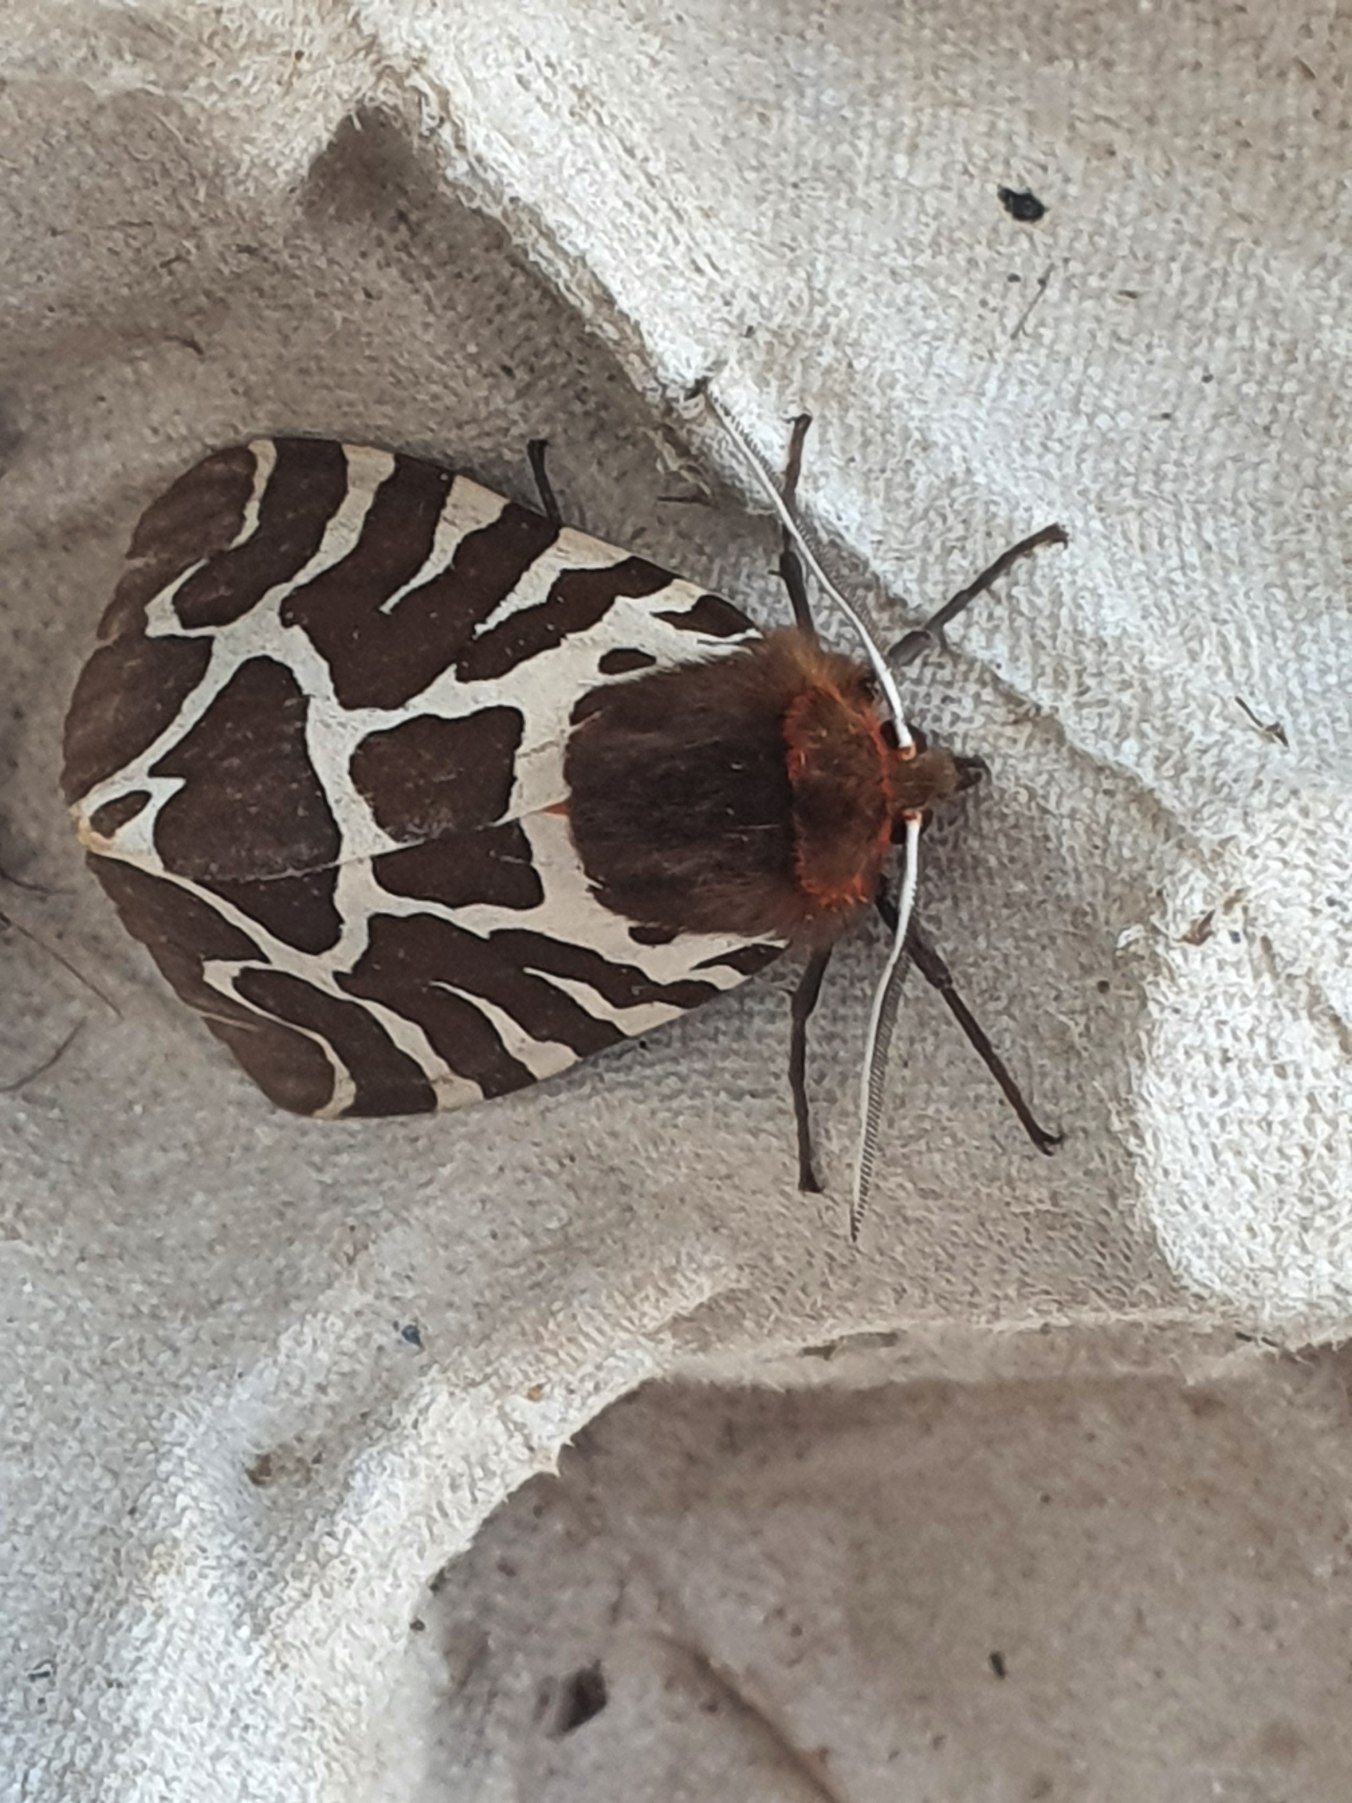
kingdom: Animalia
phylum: Arthropoda
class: Insecta
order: Lepidoptera
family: Erebidae
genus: Arctia
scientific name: Arctia caja
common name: Brun bjørn
